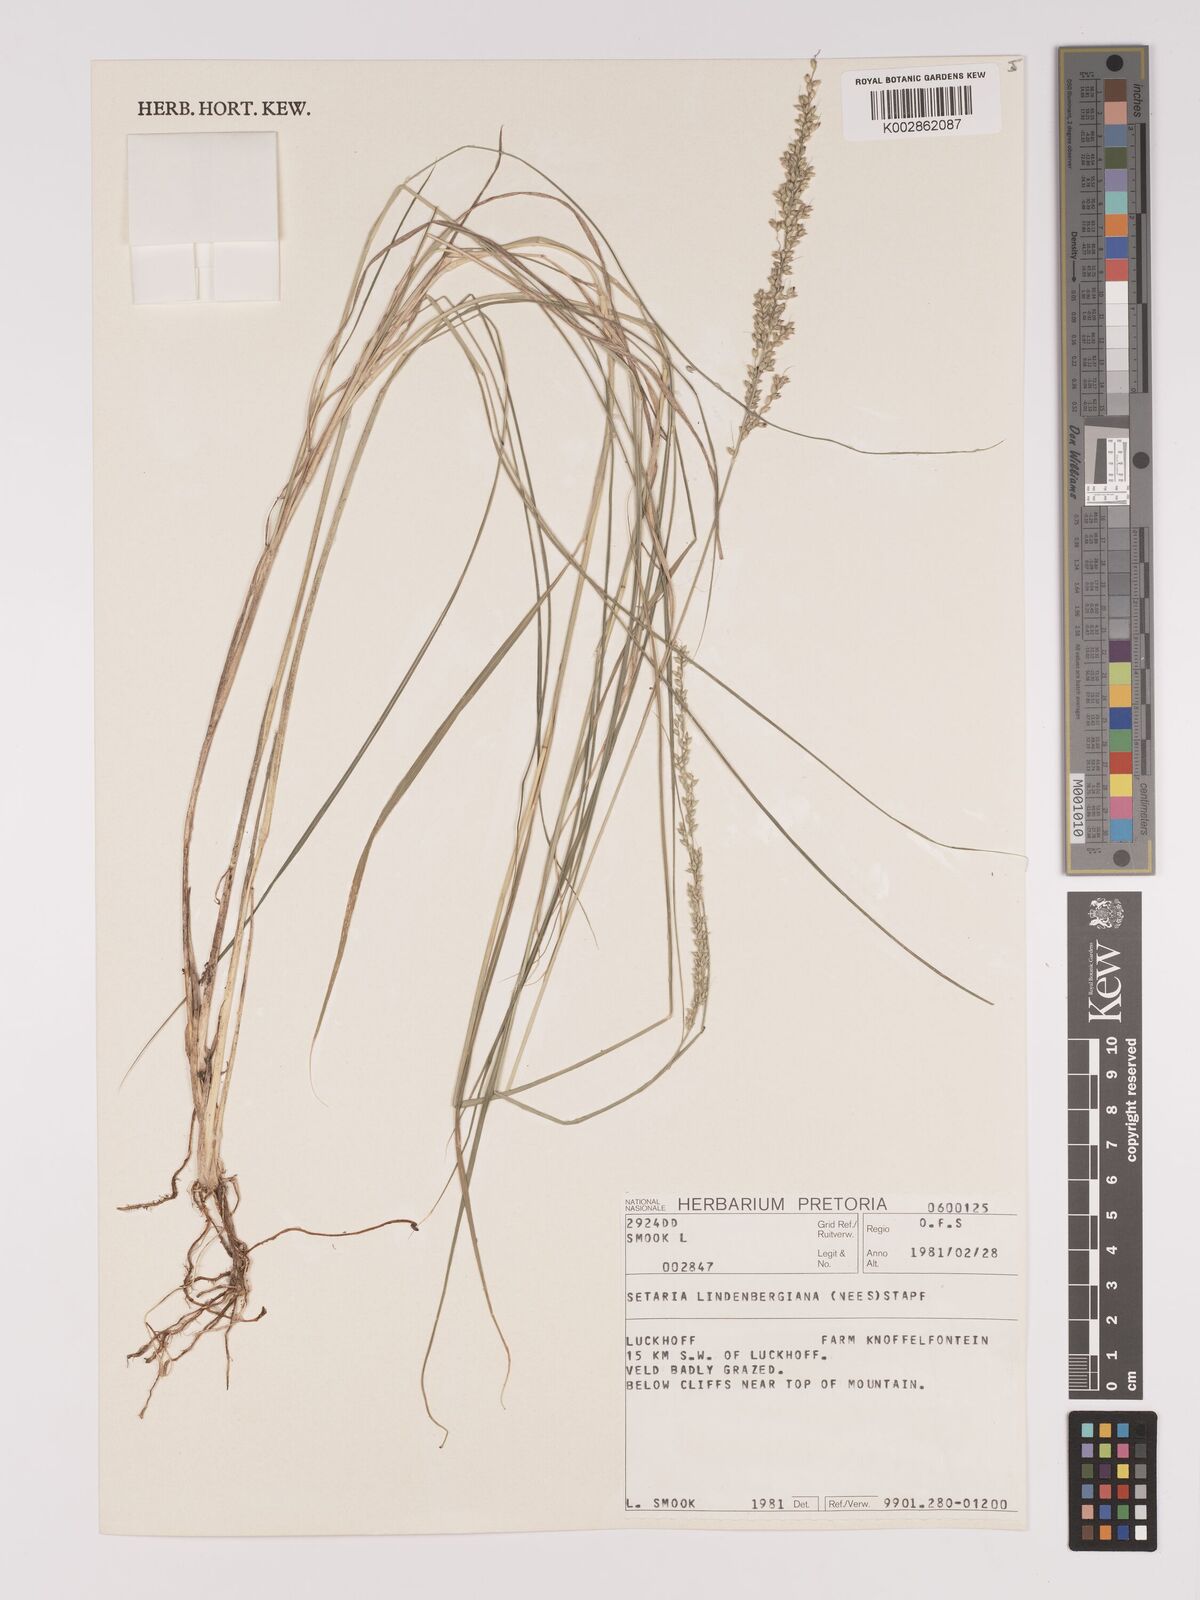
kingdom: Plantae
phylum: Tracheophyta
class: Liliopsida
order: Poales
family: Poaceae
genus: Setaria
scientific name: Setaria lindenbergiana
